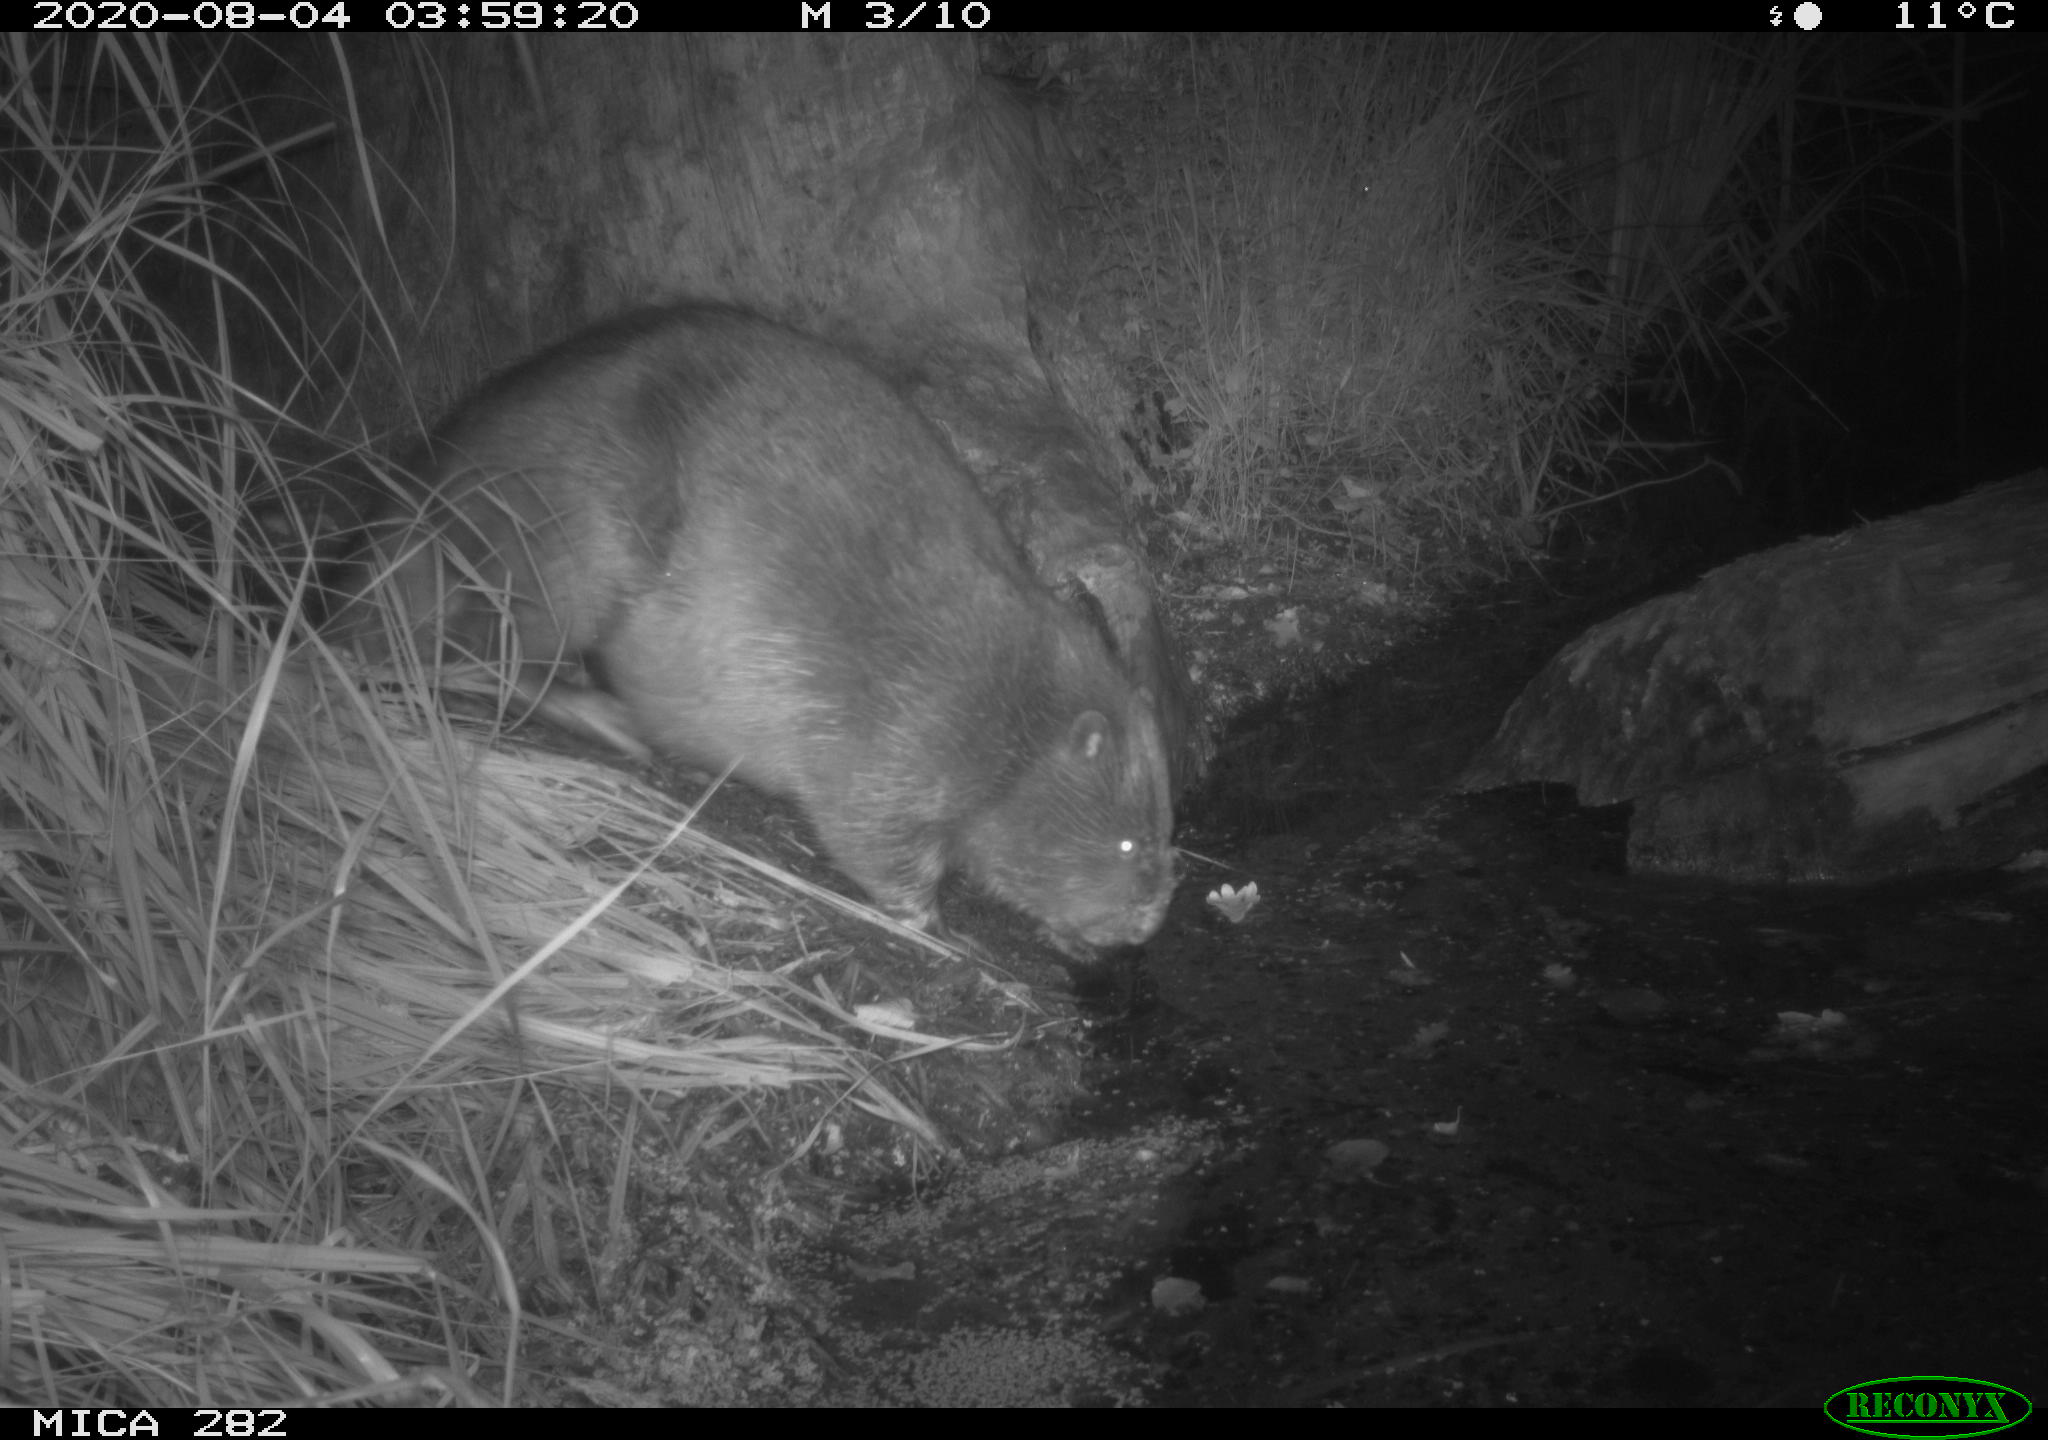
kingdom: Animalia
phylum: Chordata
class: Mammalia
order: Rodentia
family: Castoridae
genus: Castor
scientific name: Castor fiber
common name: Eurasian beaver
